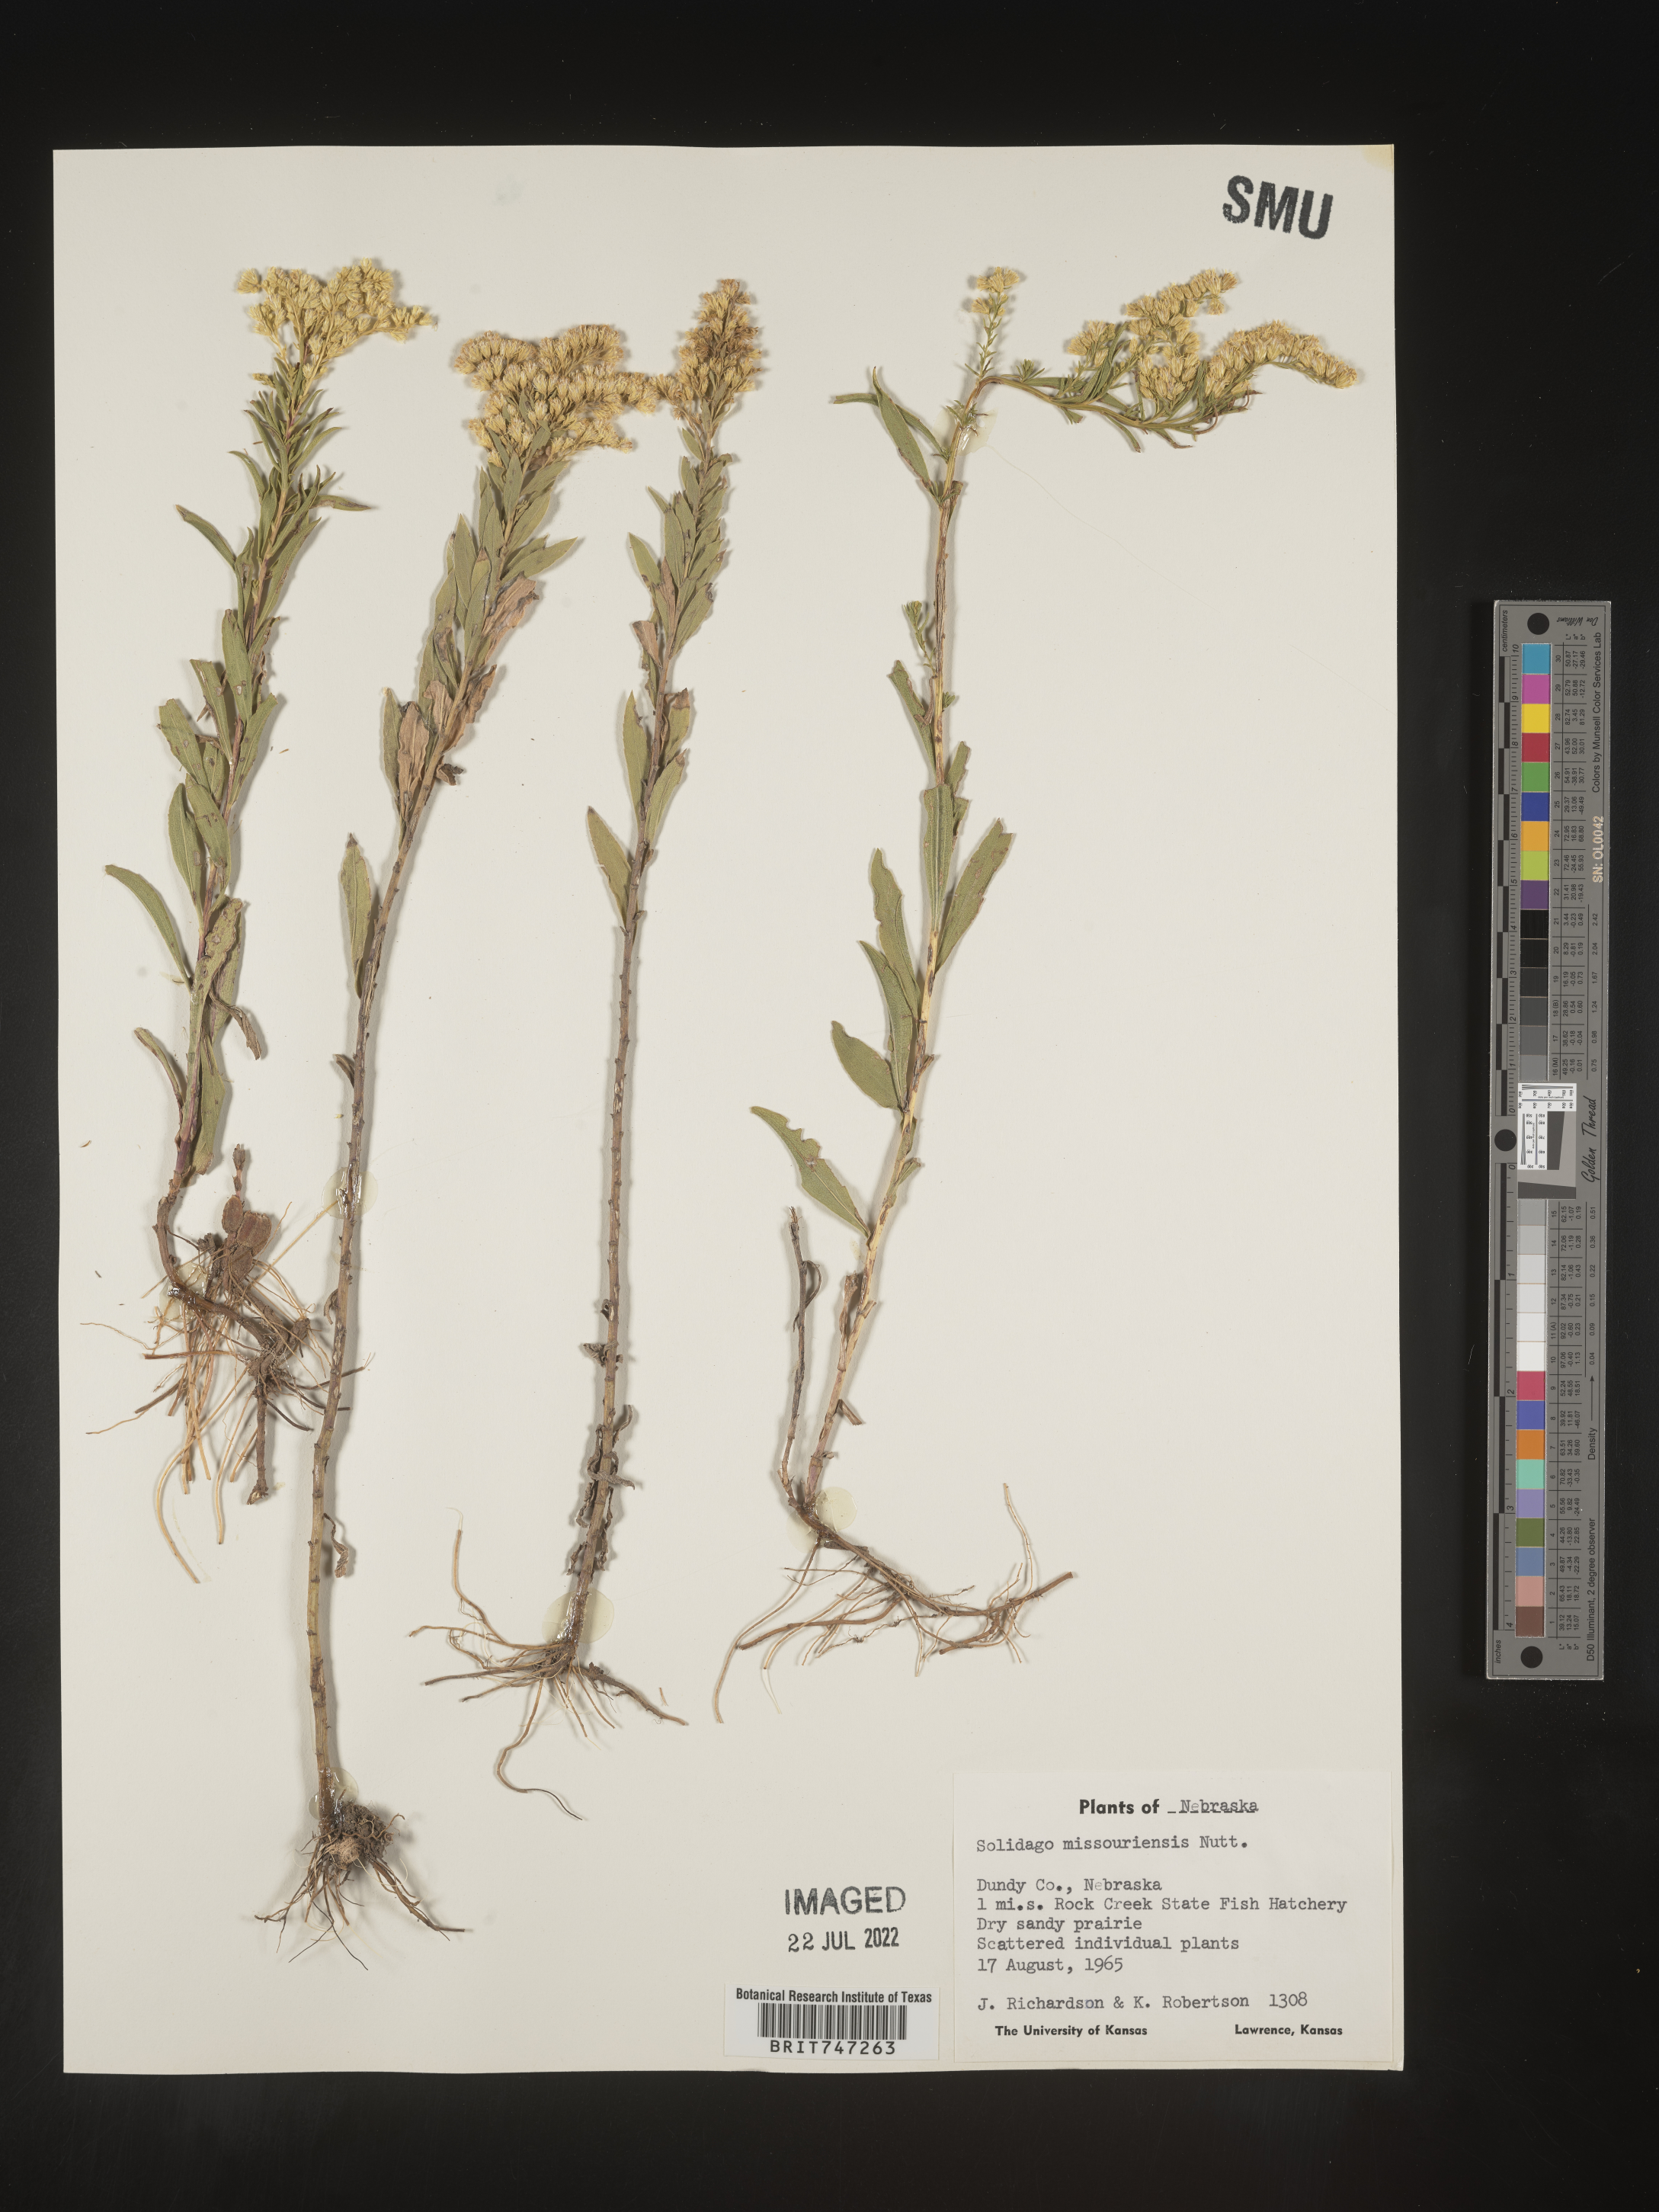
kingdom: Plantae
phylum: Tracheophyta
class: Magnoliopsida
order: Asterales
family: Asteraceae
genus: Solidago
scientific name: Solidago missouriensis
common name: Prairie goldenrod
